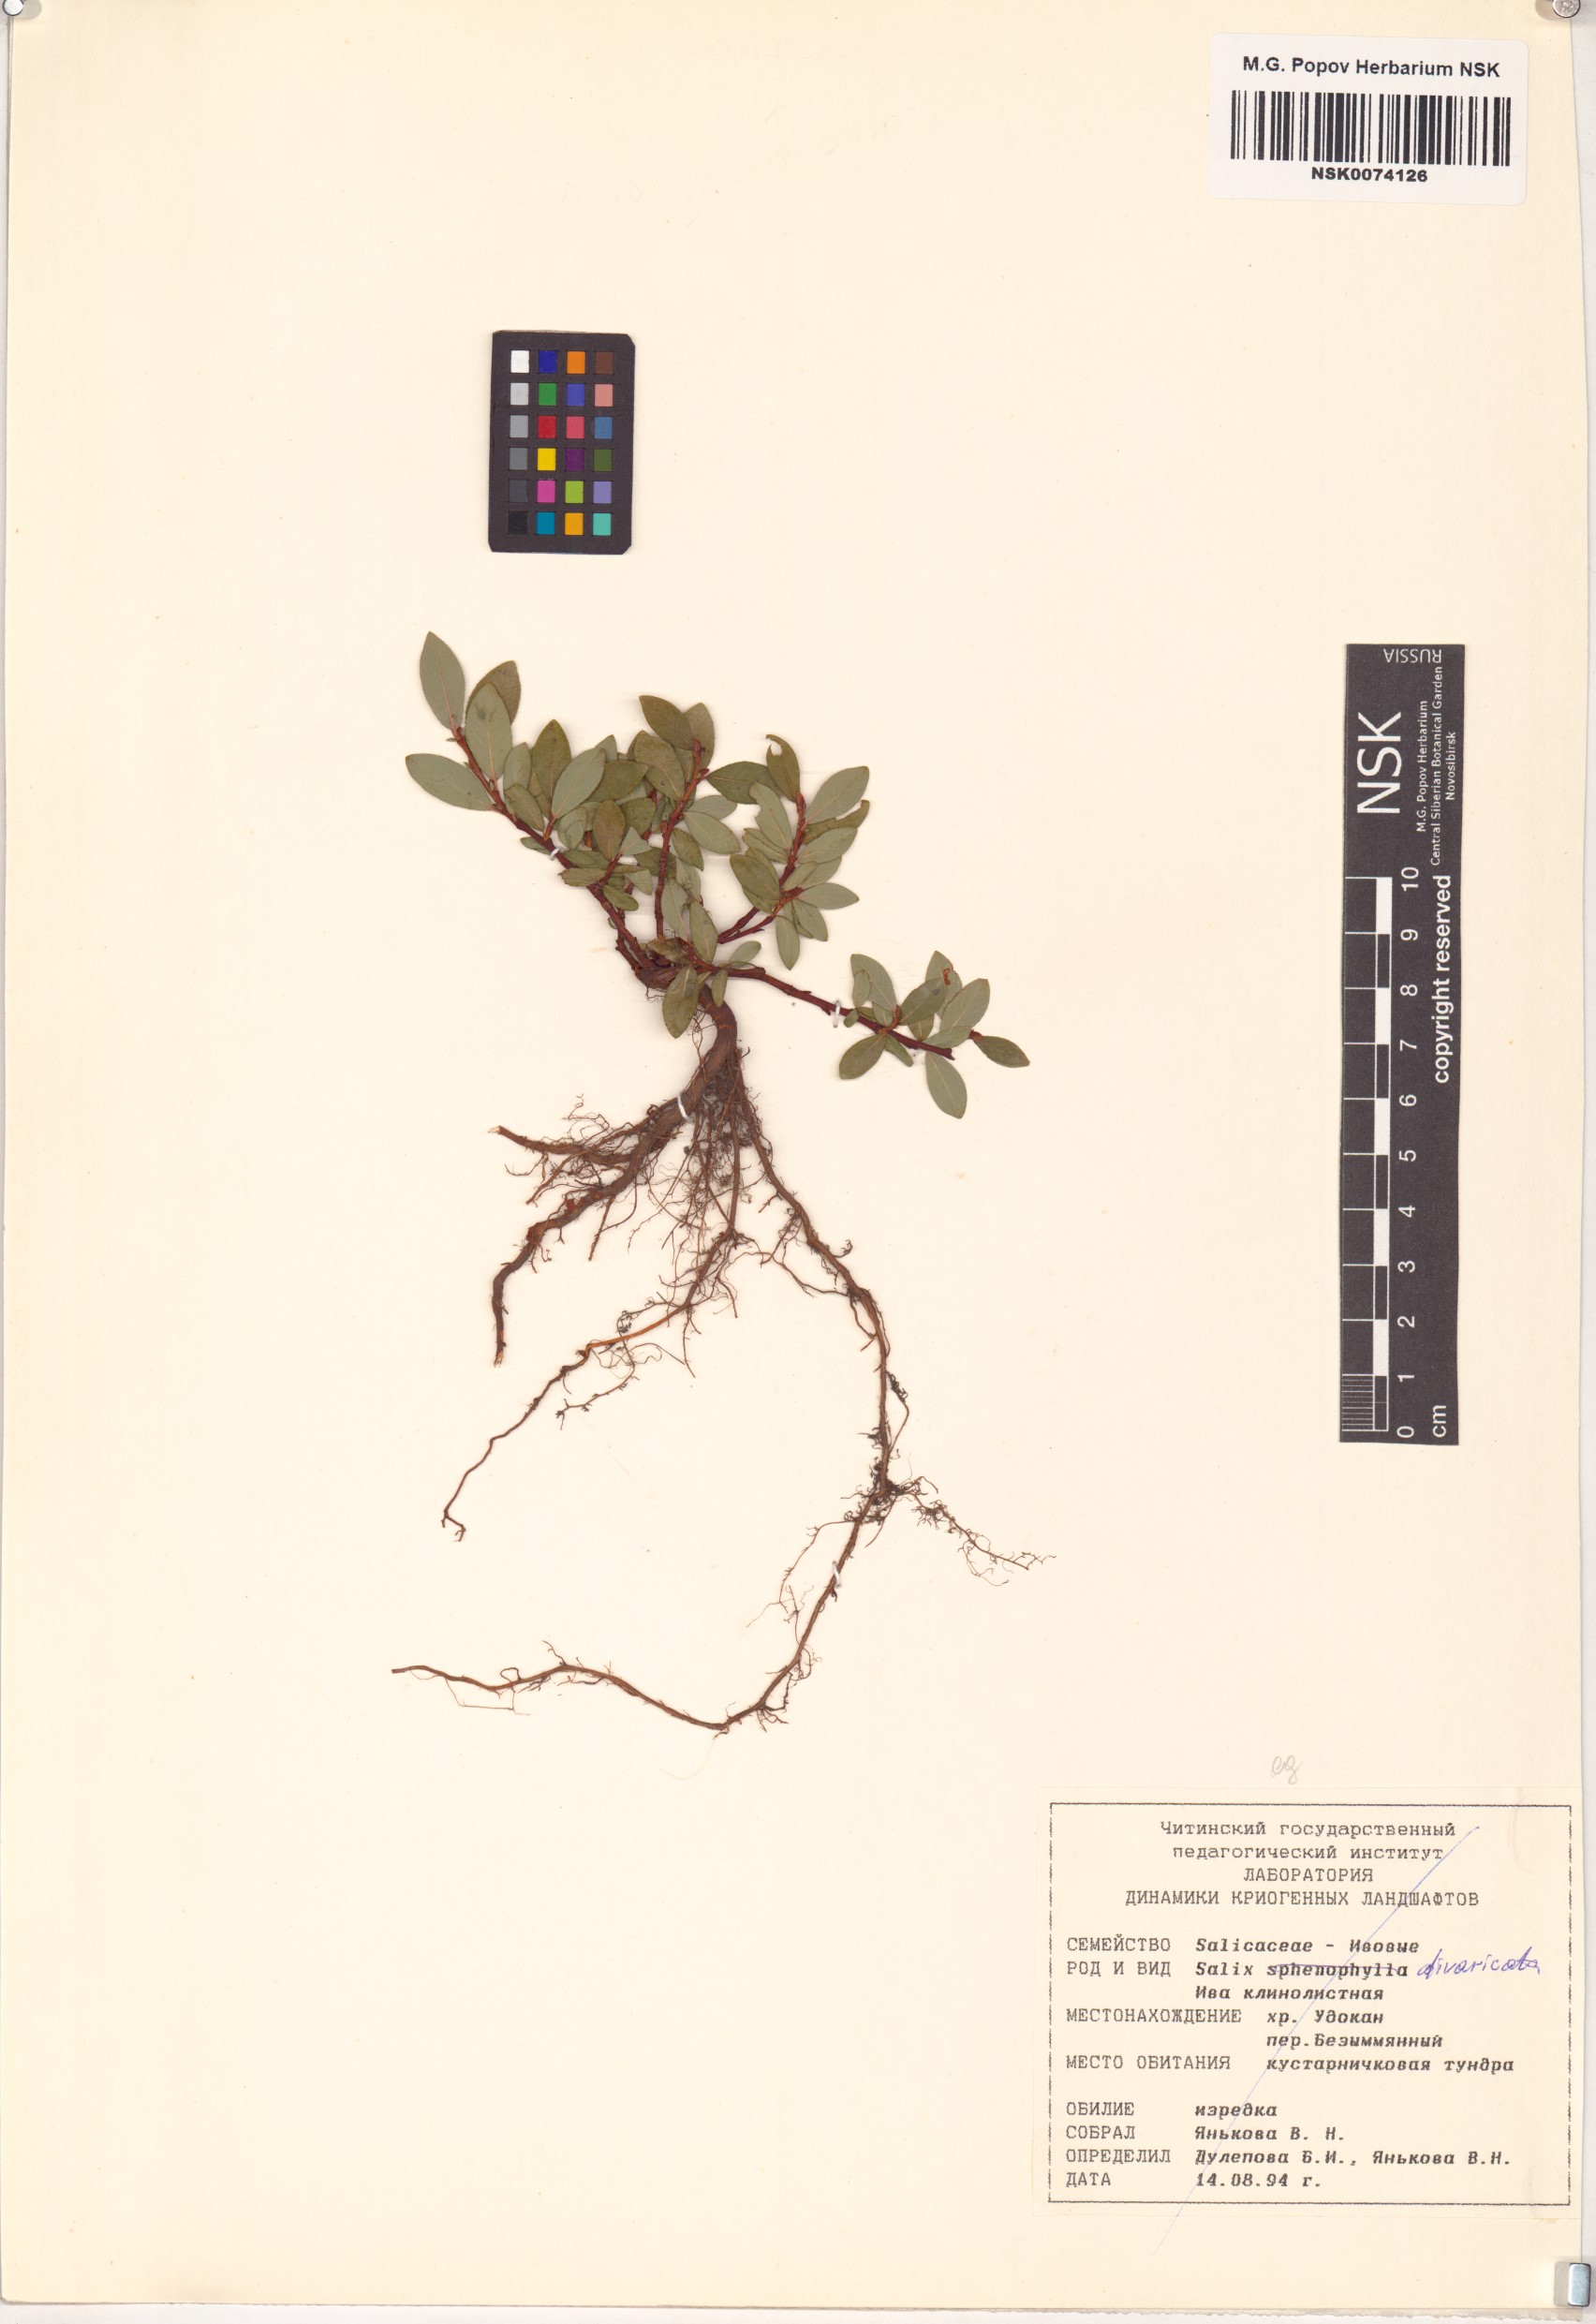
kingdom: Plantae
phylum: Tracheophyta
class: Magnoliopsida
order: Malpighiales
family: Salicaceae
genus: Salix
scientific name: Salix divaricata
